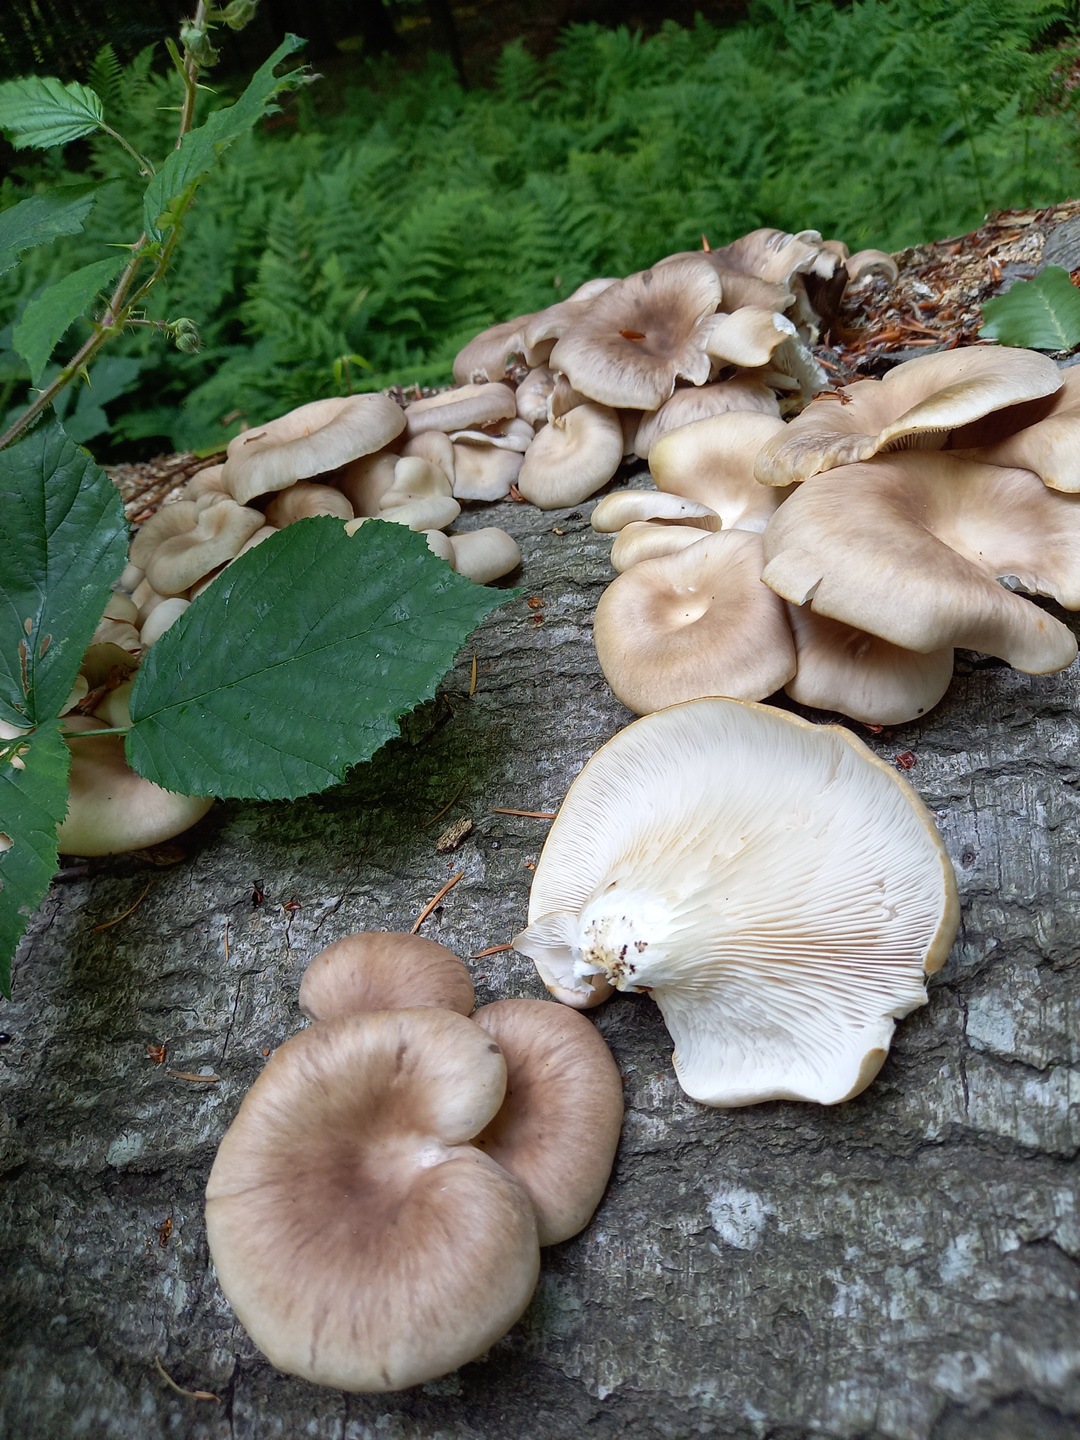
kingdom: Fungi
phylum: Basidiomycota
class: Agaricomycetes
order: Agaricales
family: Pleurotaceae
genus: Pleurotus
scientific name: Pleurotus pulmonarius
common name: sommer-østershat
